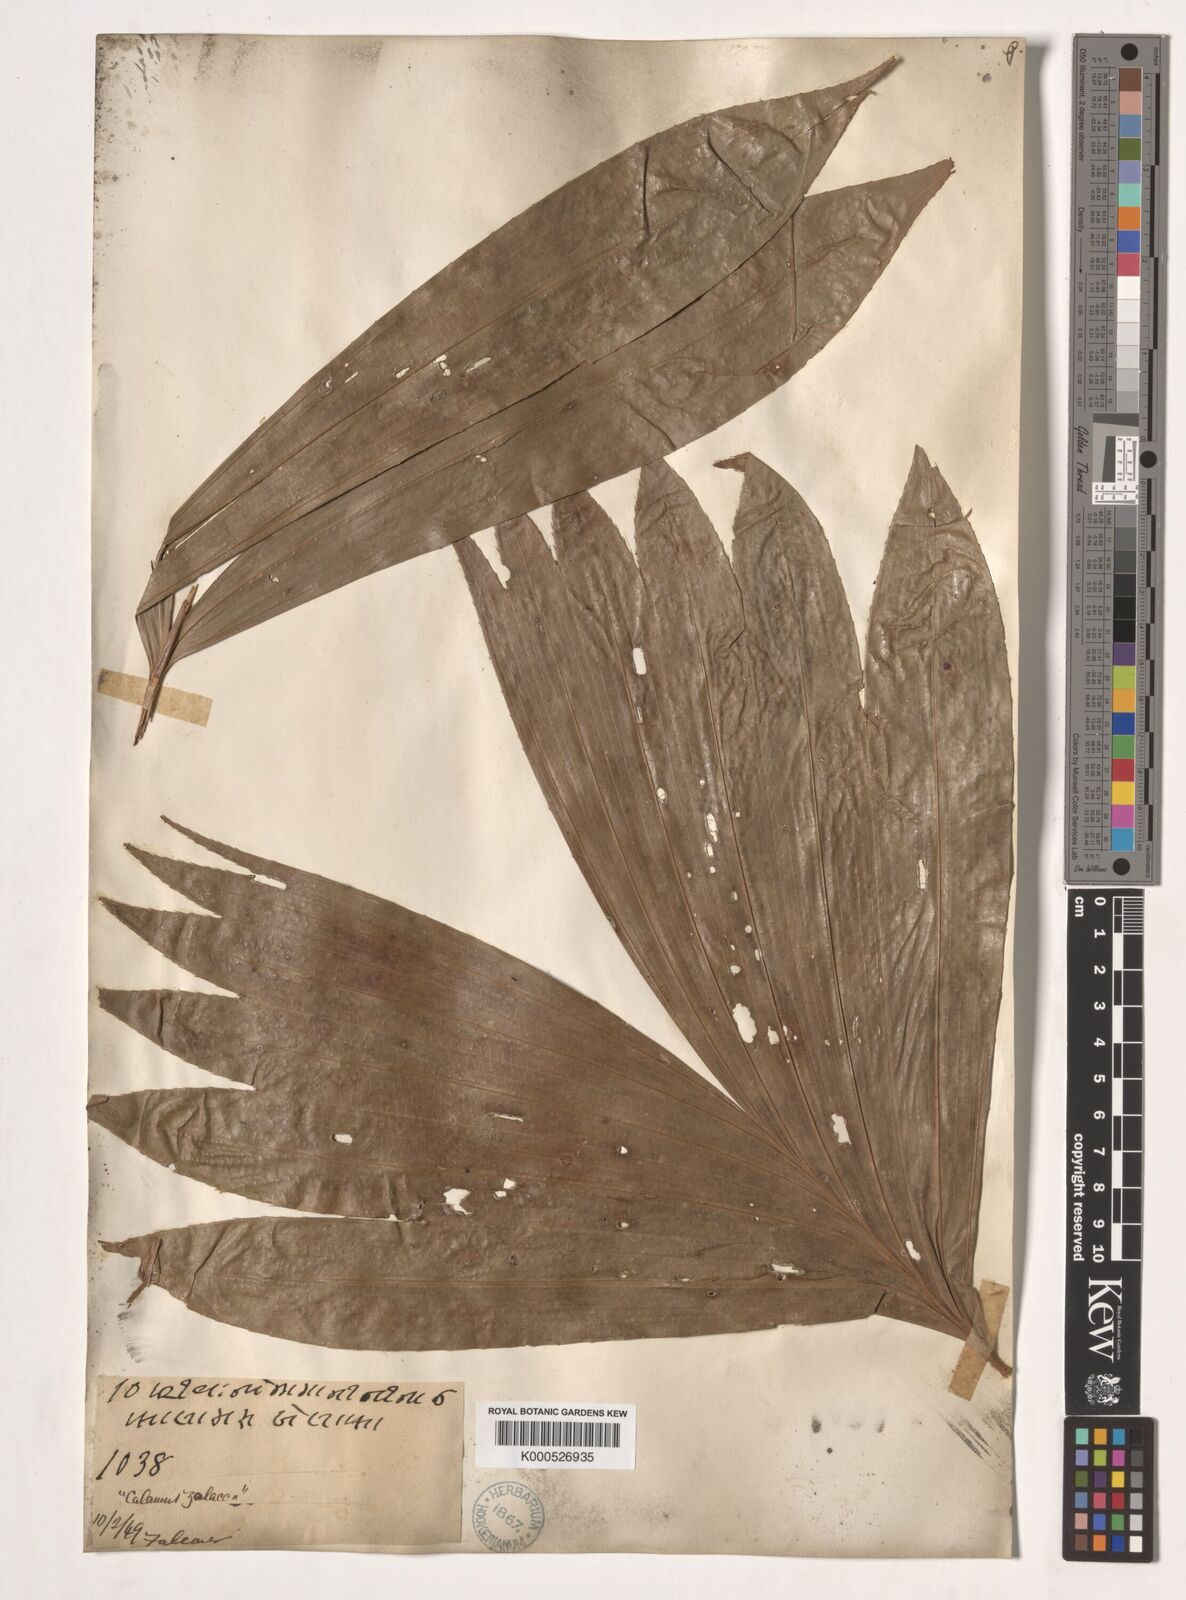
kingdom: Plantae
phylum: Tracheophyta
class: Liliopsida
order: Arecales
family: Arecaceae
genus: Salacca
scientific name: Salacca wallichiana
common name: Rakum palm
